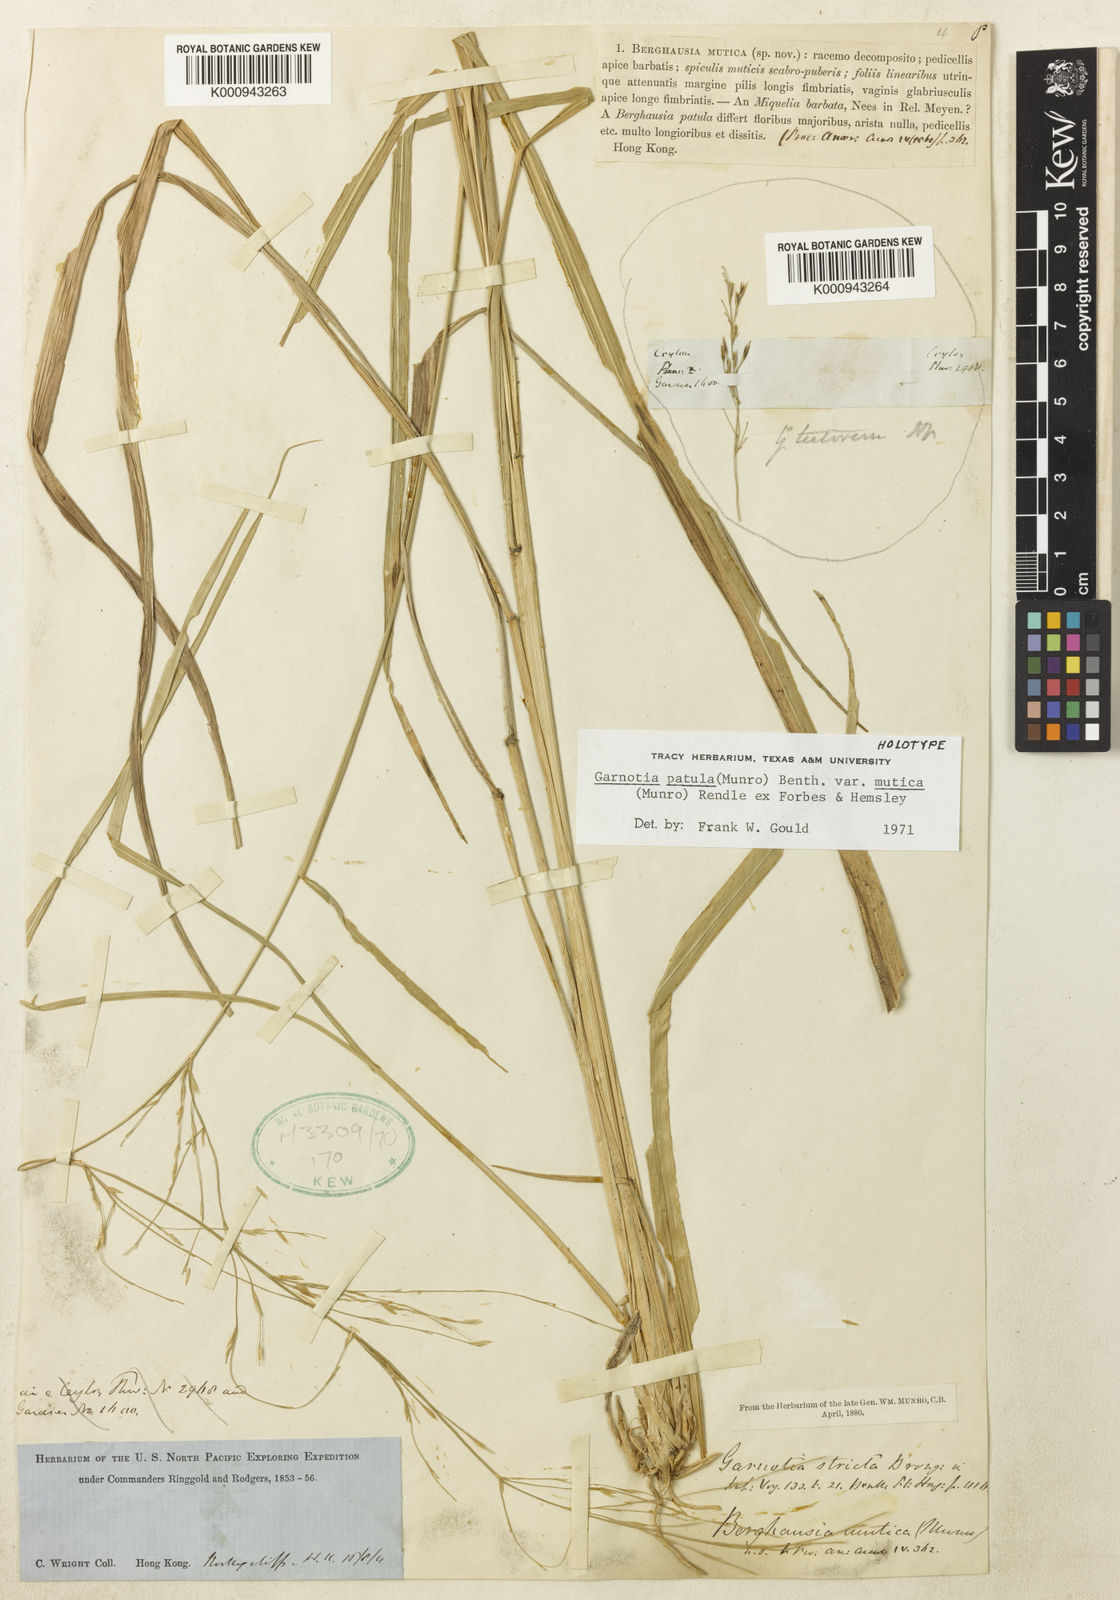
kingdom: Plantae
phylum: Tracheophyta
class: Liliopsida
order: Poales
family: Poaceae
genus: Garnotia
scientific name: Garnotia patula
